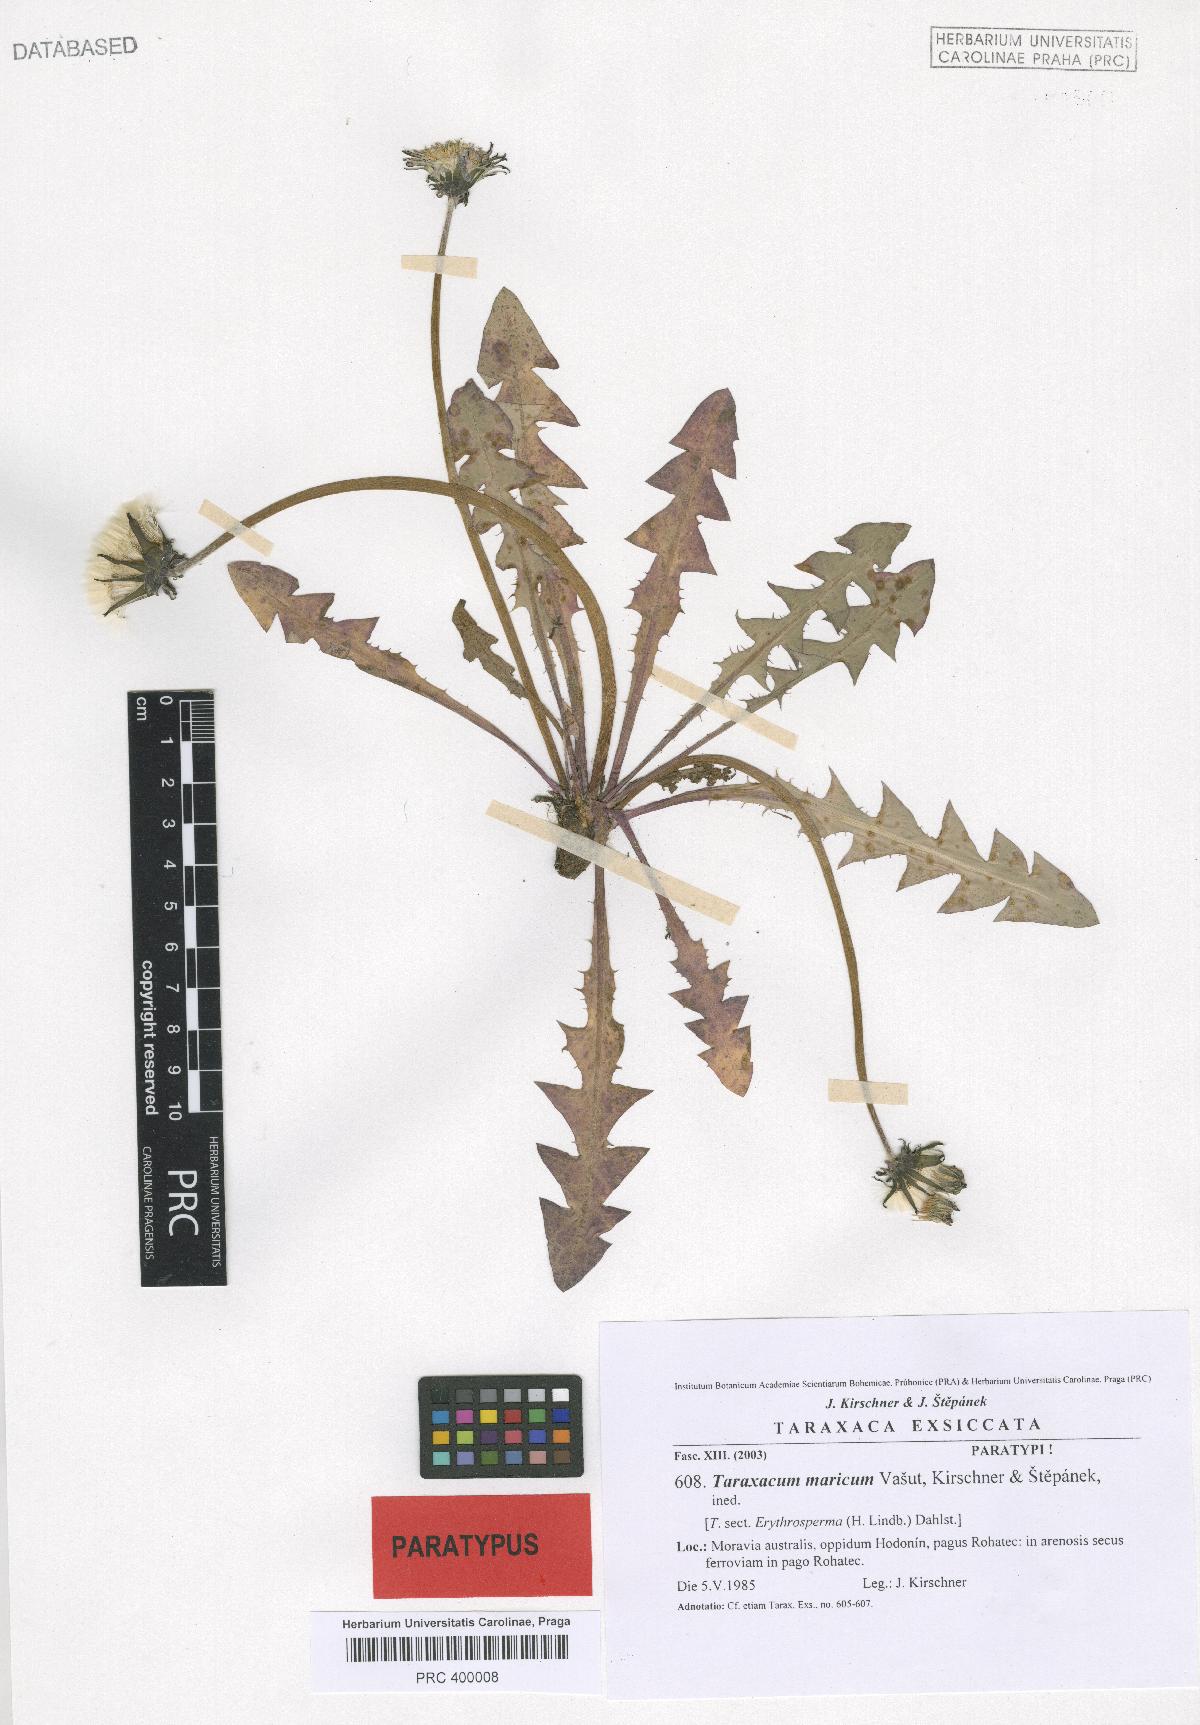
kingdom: Plantae
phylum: Tracheophyta
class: Magnoliopsida
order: Asterales
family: Asteraceae
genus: Taraxacum
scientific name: Taraxacum maricum
